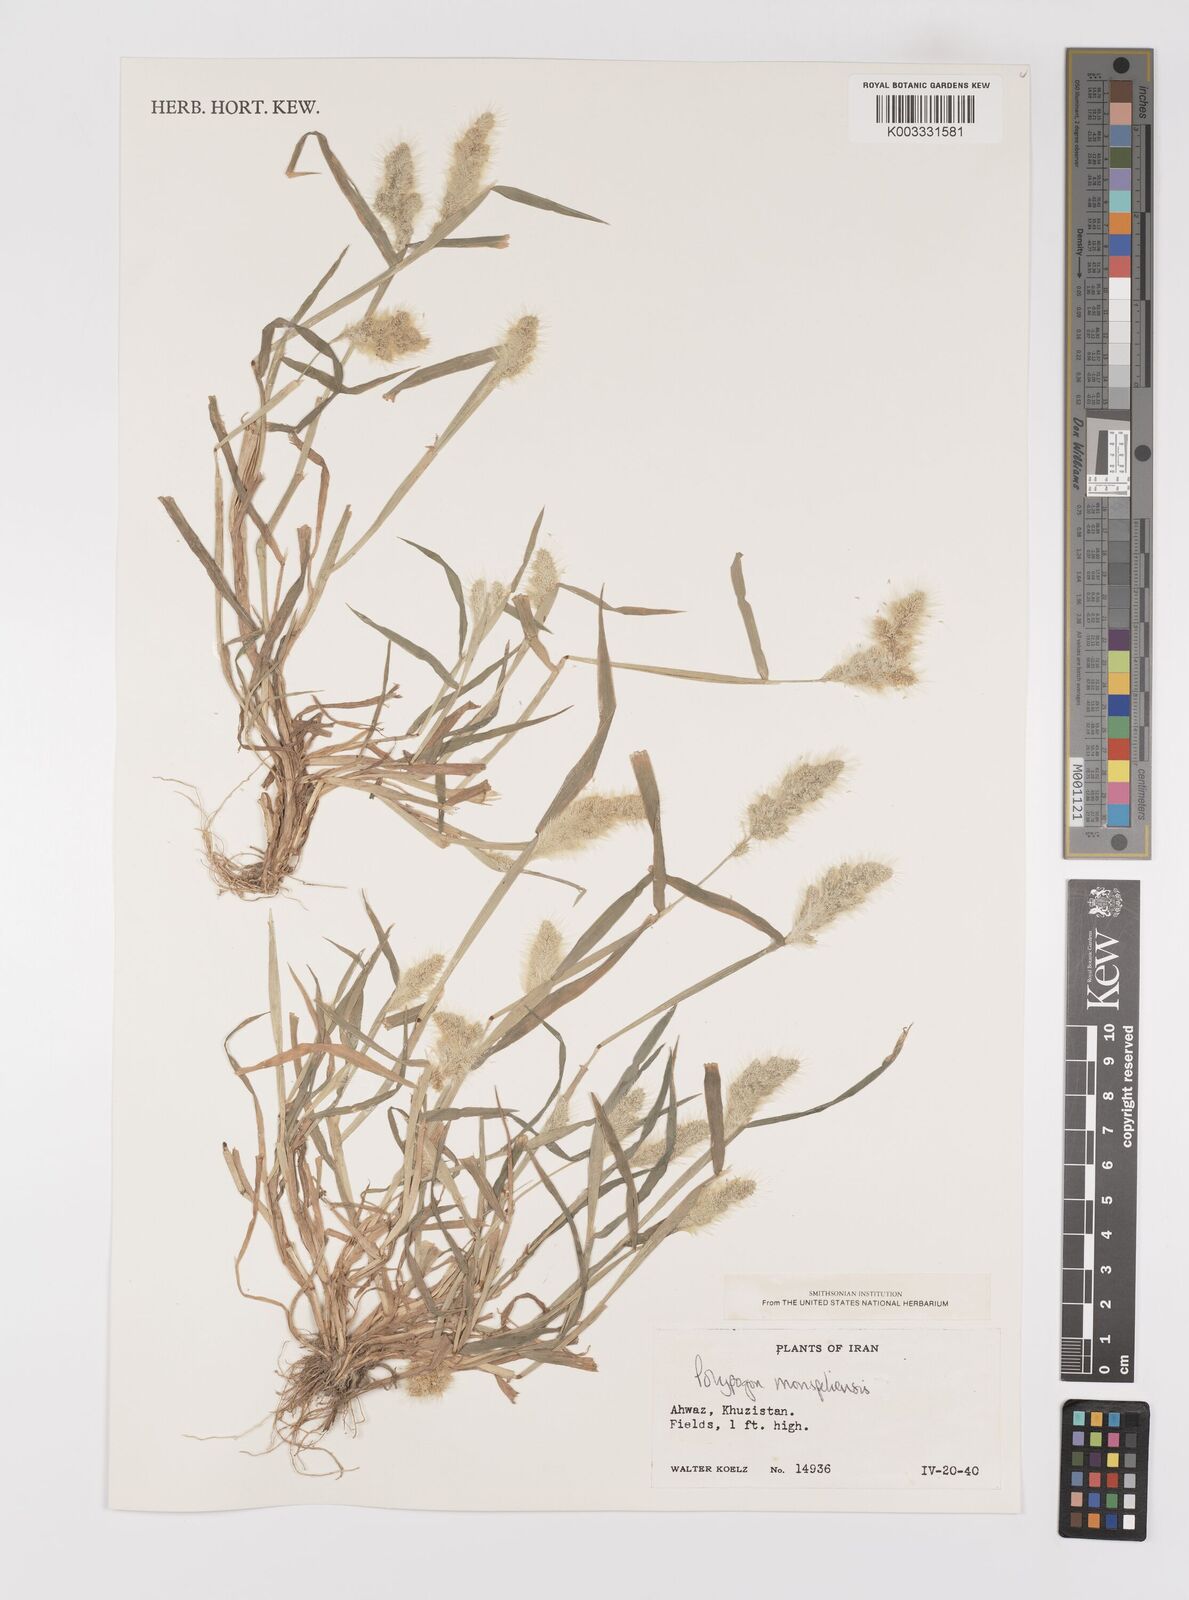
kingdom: Plantae
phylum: Tracheophyta
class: Liliopsida
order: Poales
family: Poaceae
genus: Polypogon
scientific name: Polypogon monspeliensis
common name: Annual rabbitsfoot grass
